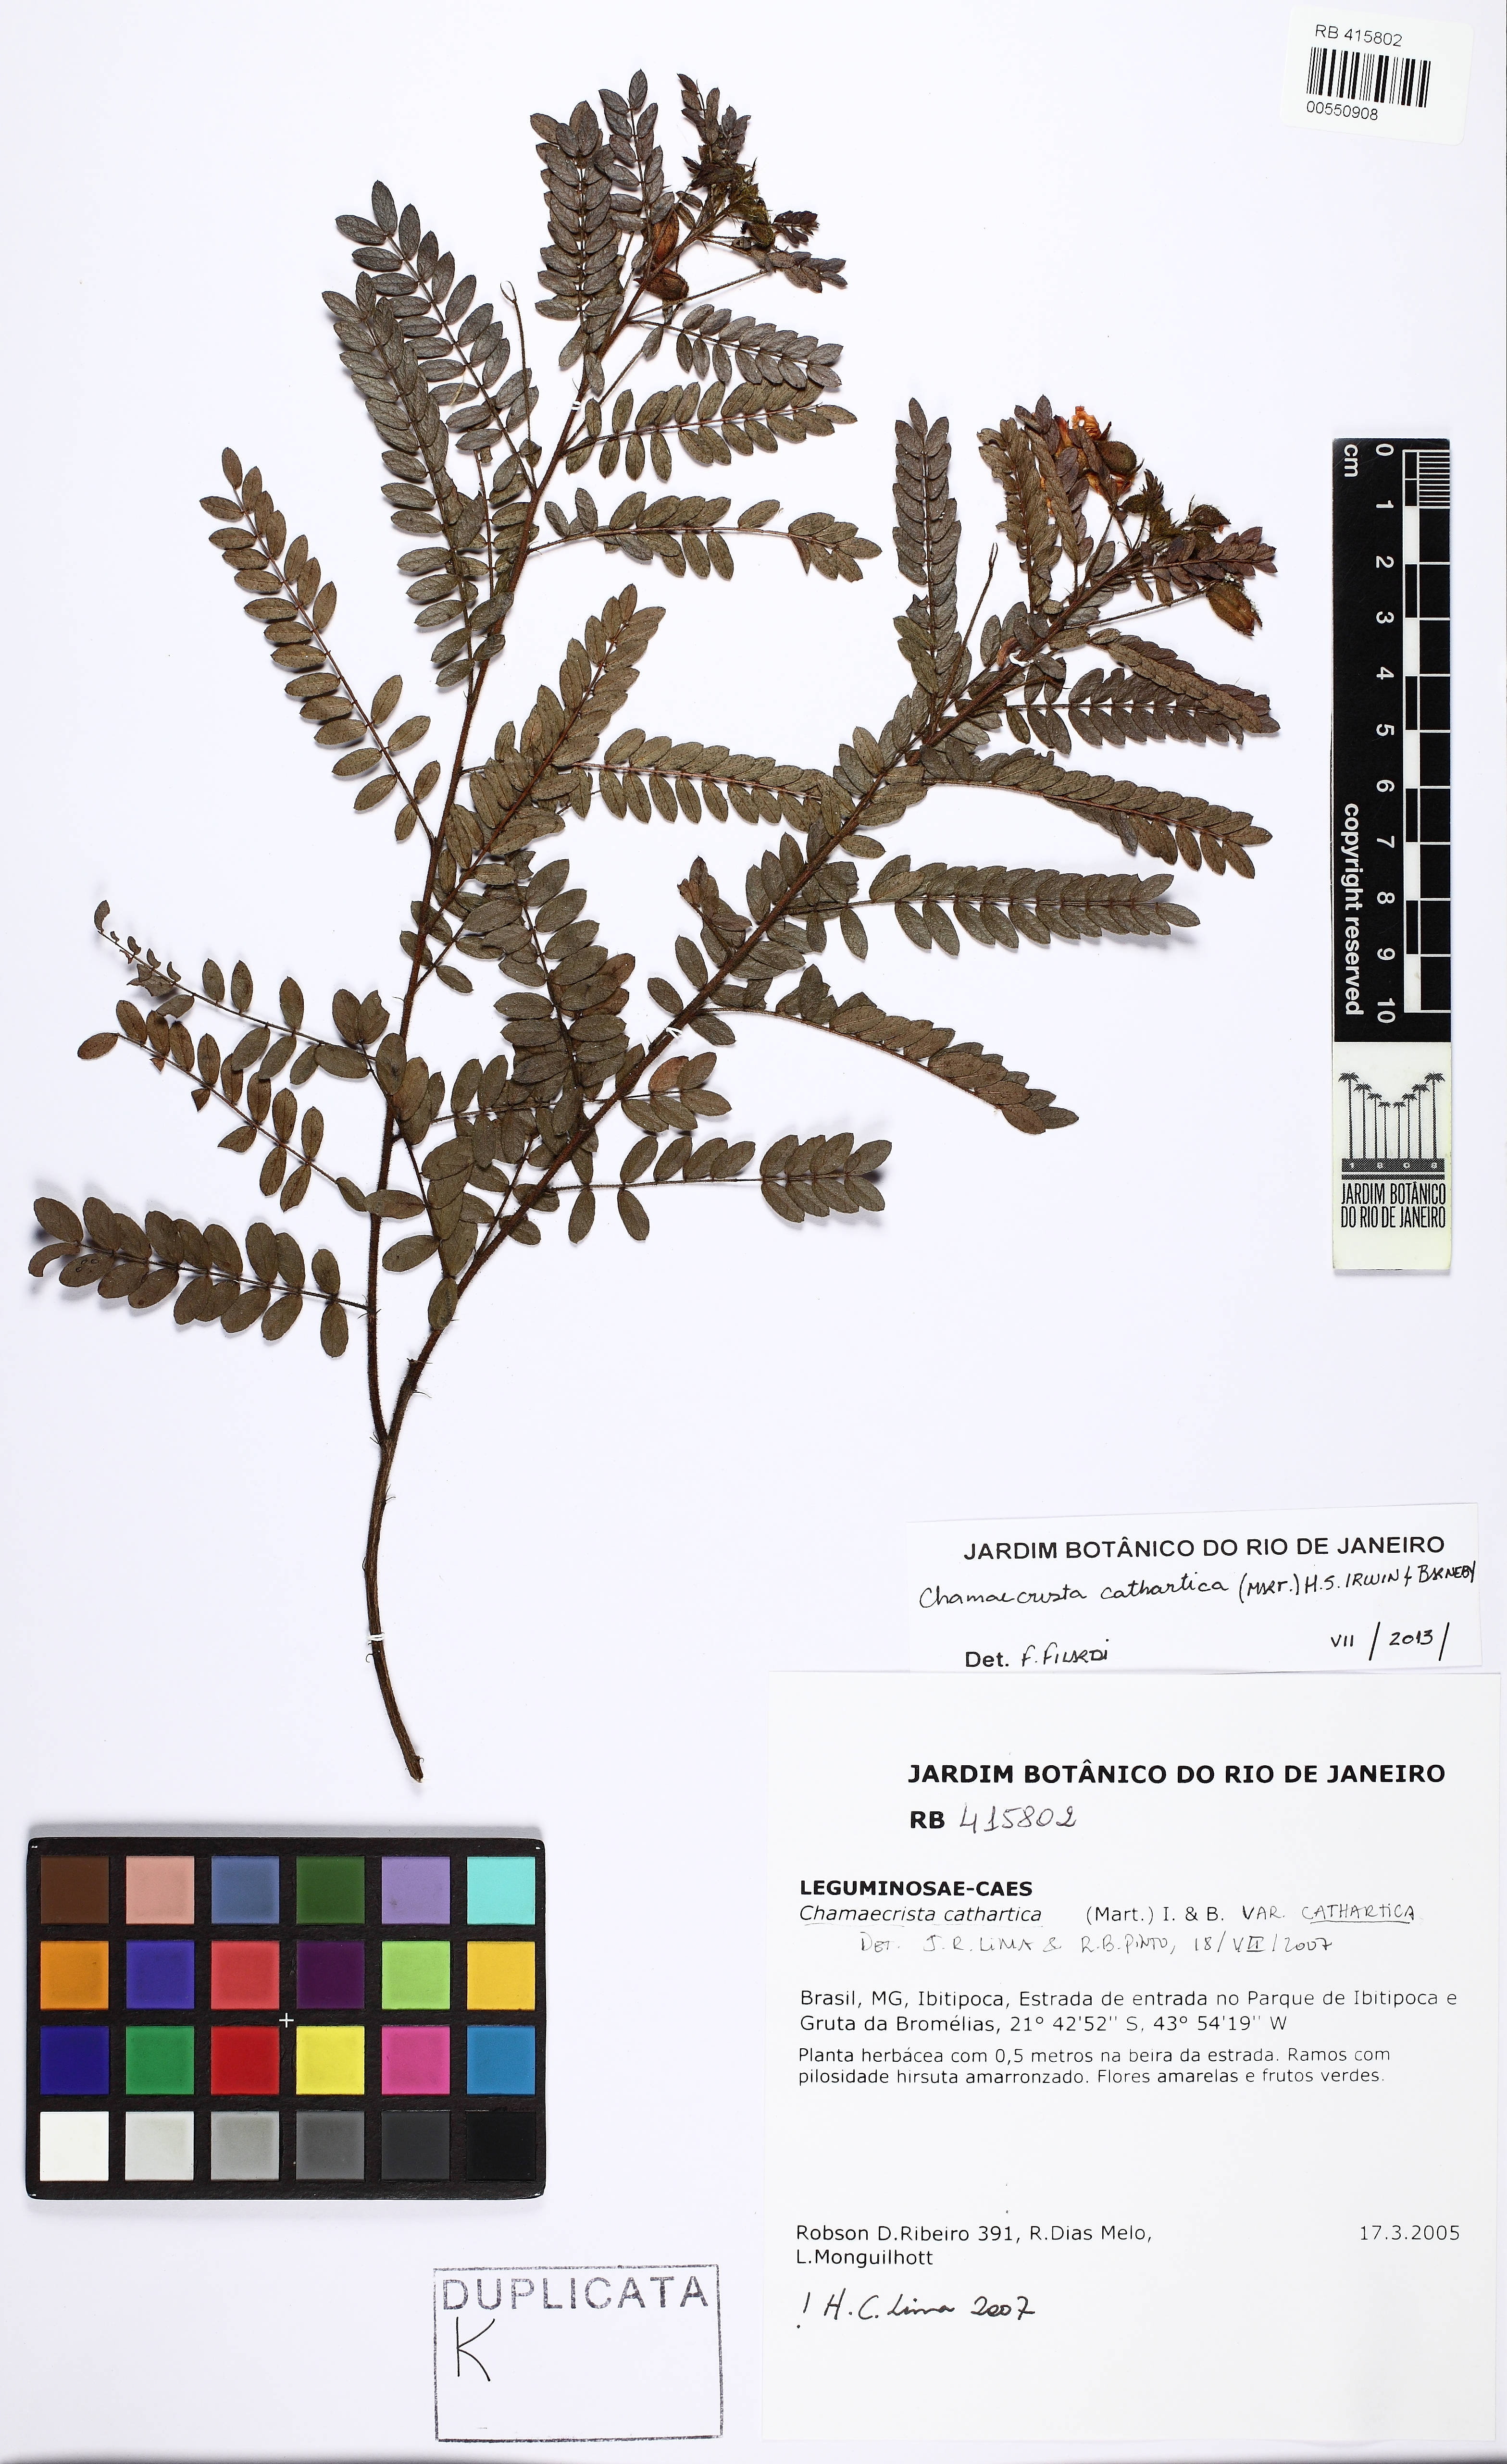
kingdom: Plantae
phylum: Tracheophyta
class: Magnoliopsida
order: Fabales
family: Fabaceae
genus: Chamaecrista
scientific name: Chamaecrista cathartica
